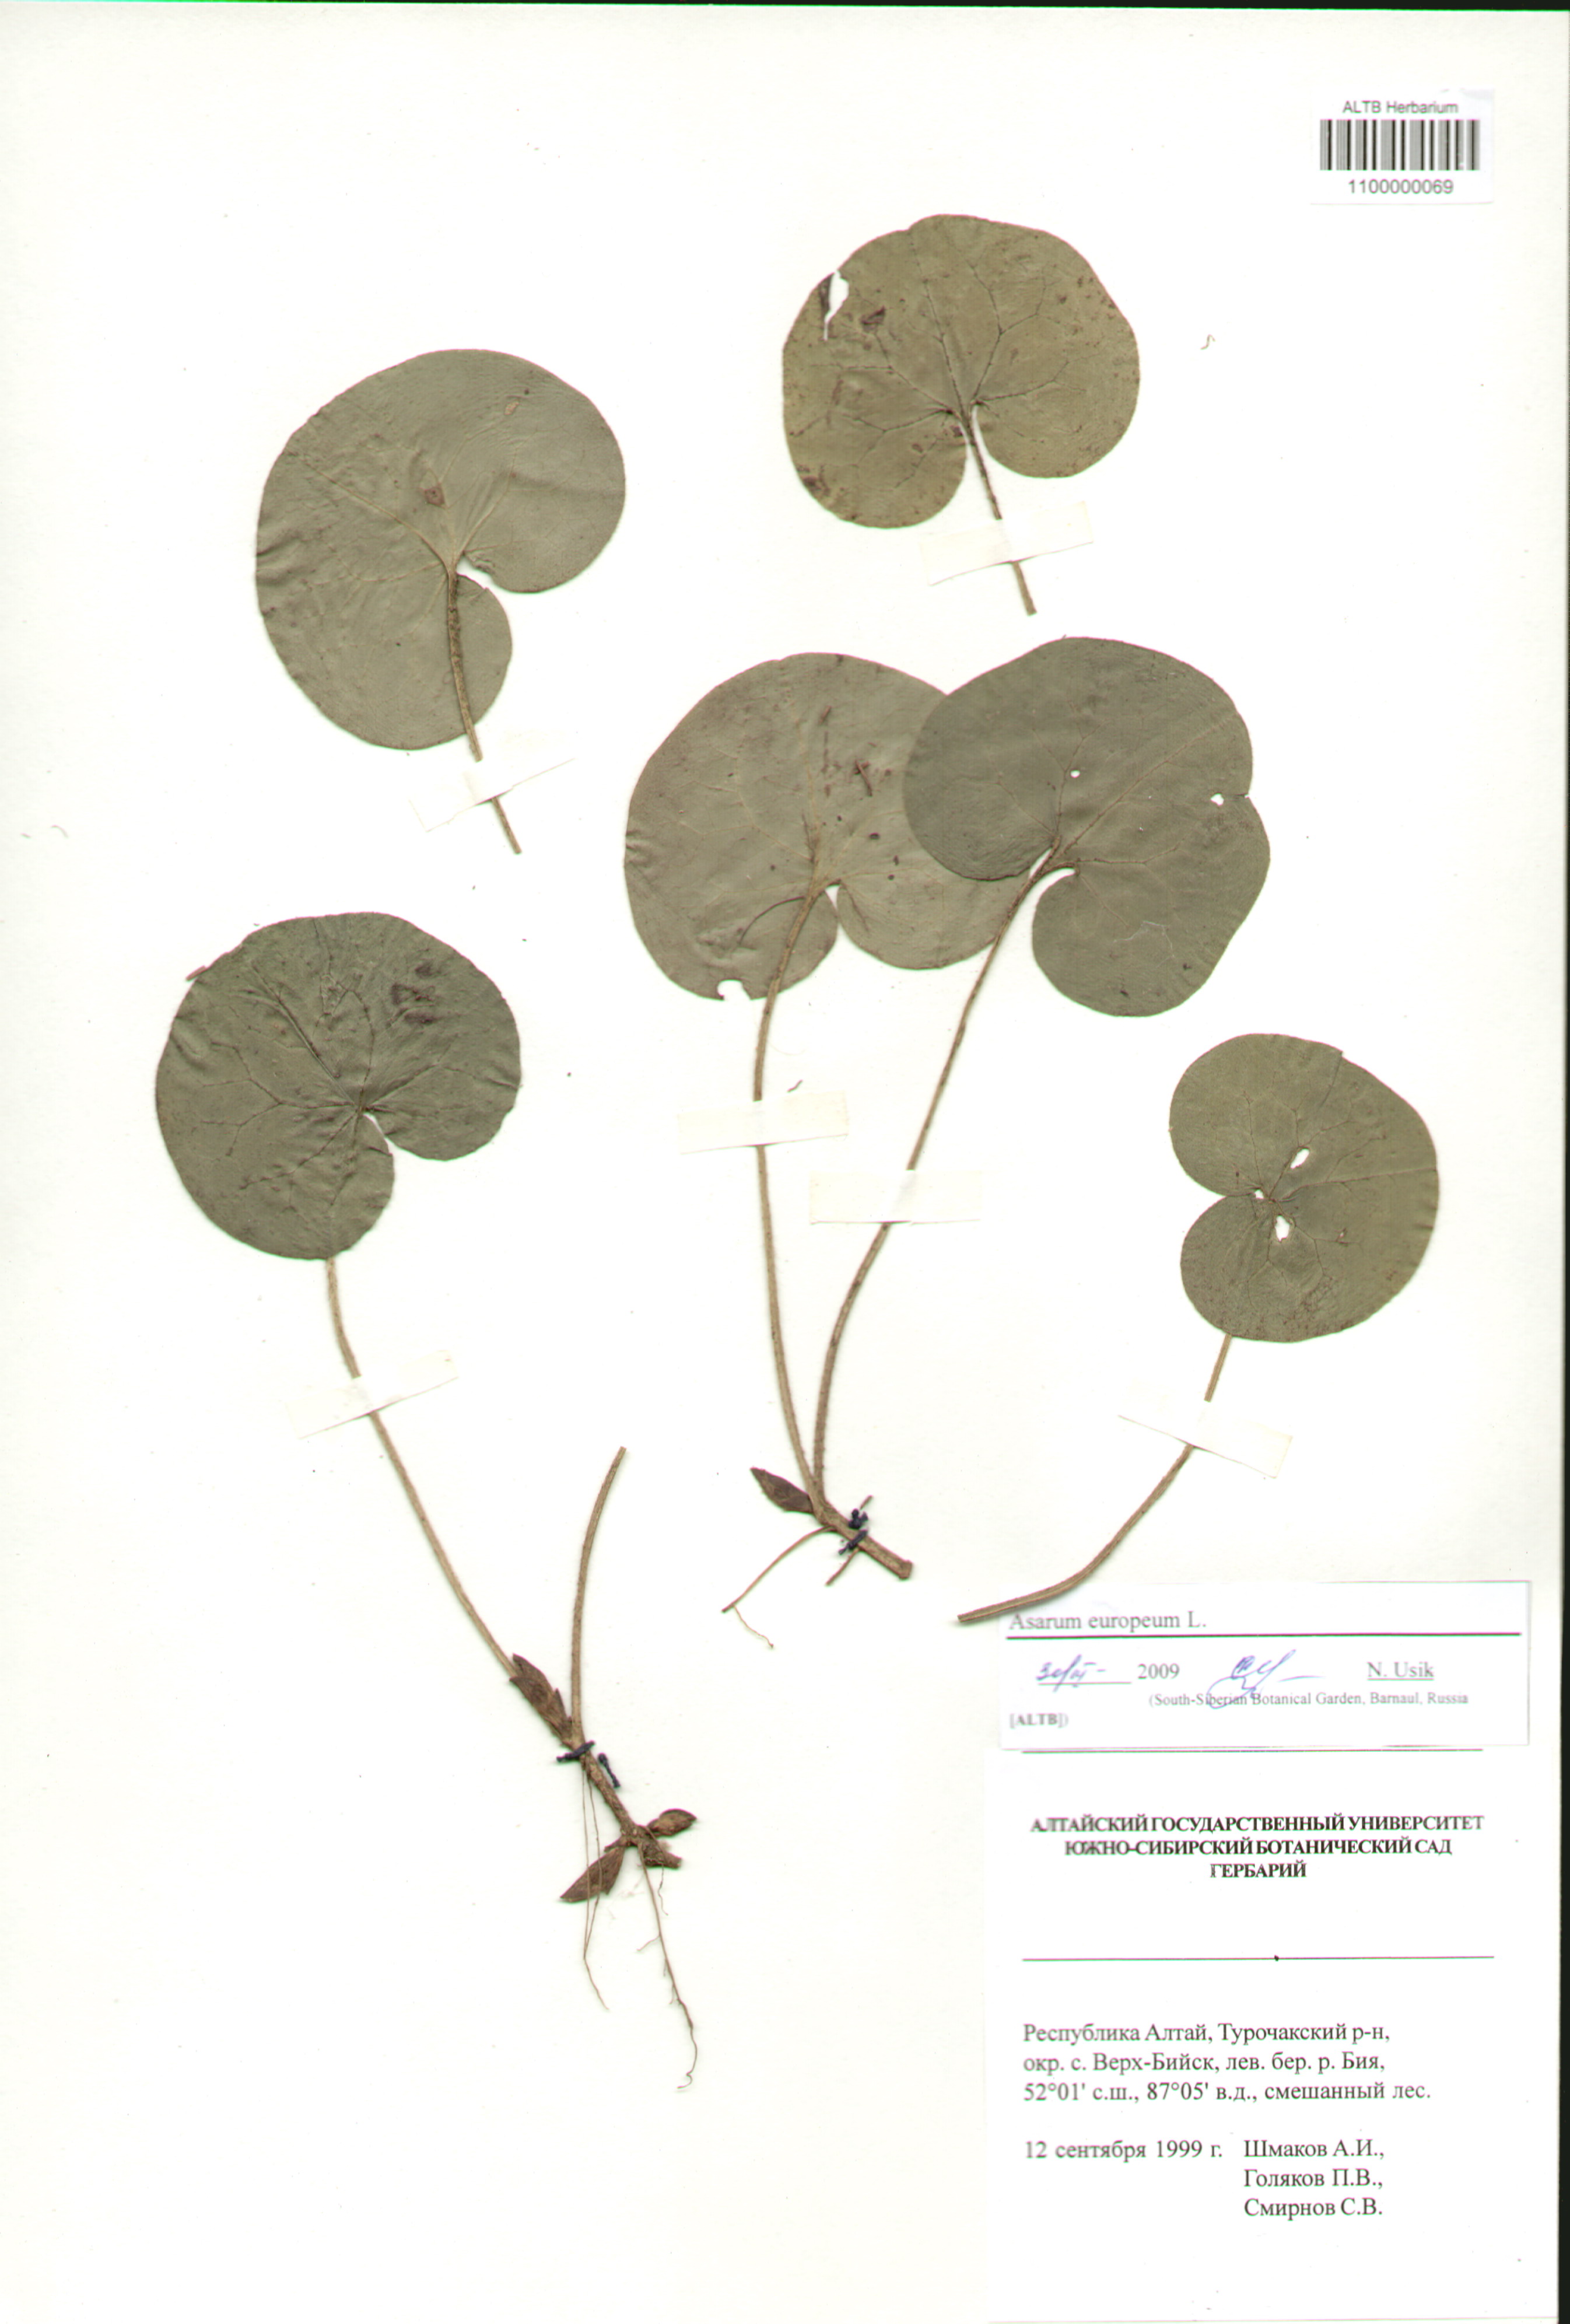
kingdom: Plantae
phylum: Tracheophyta
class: Magnoliopsida
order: Piperales
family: Aristolochiaceae
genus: Asarum
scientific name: Asarum europaeum
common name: Asarabacca
